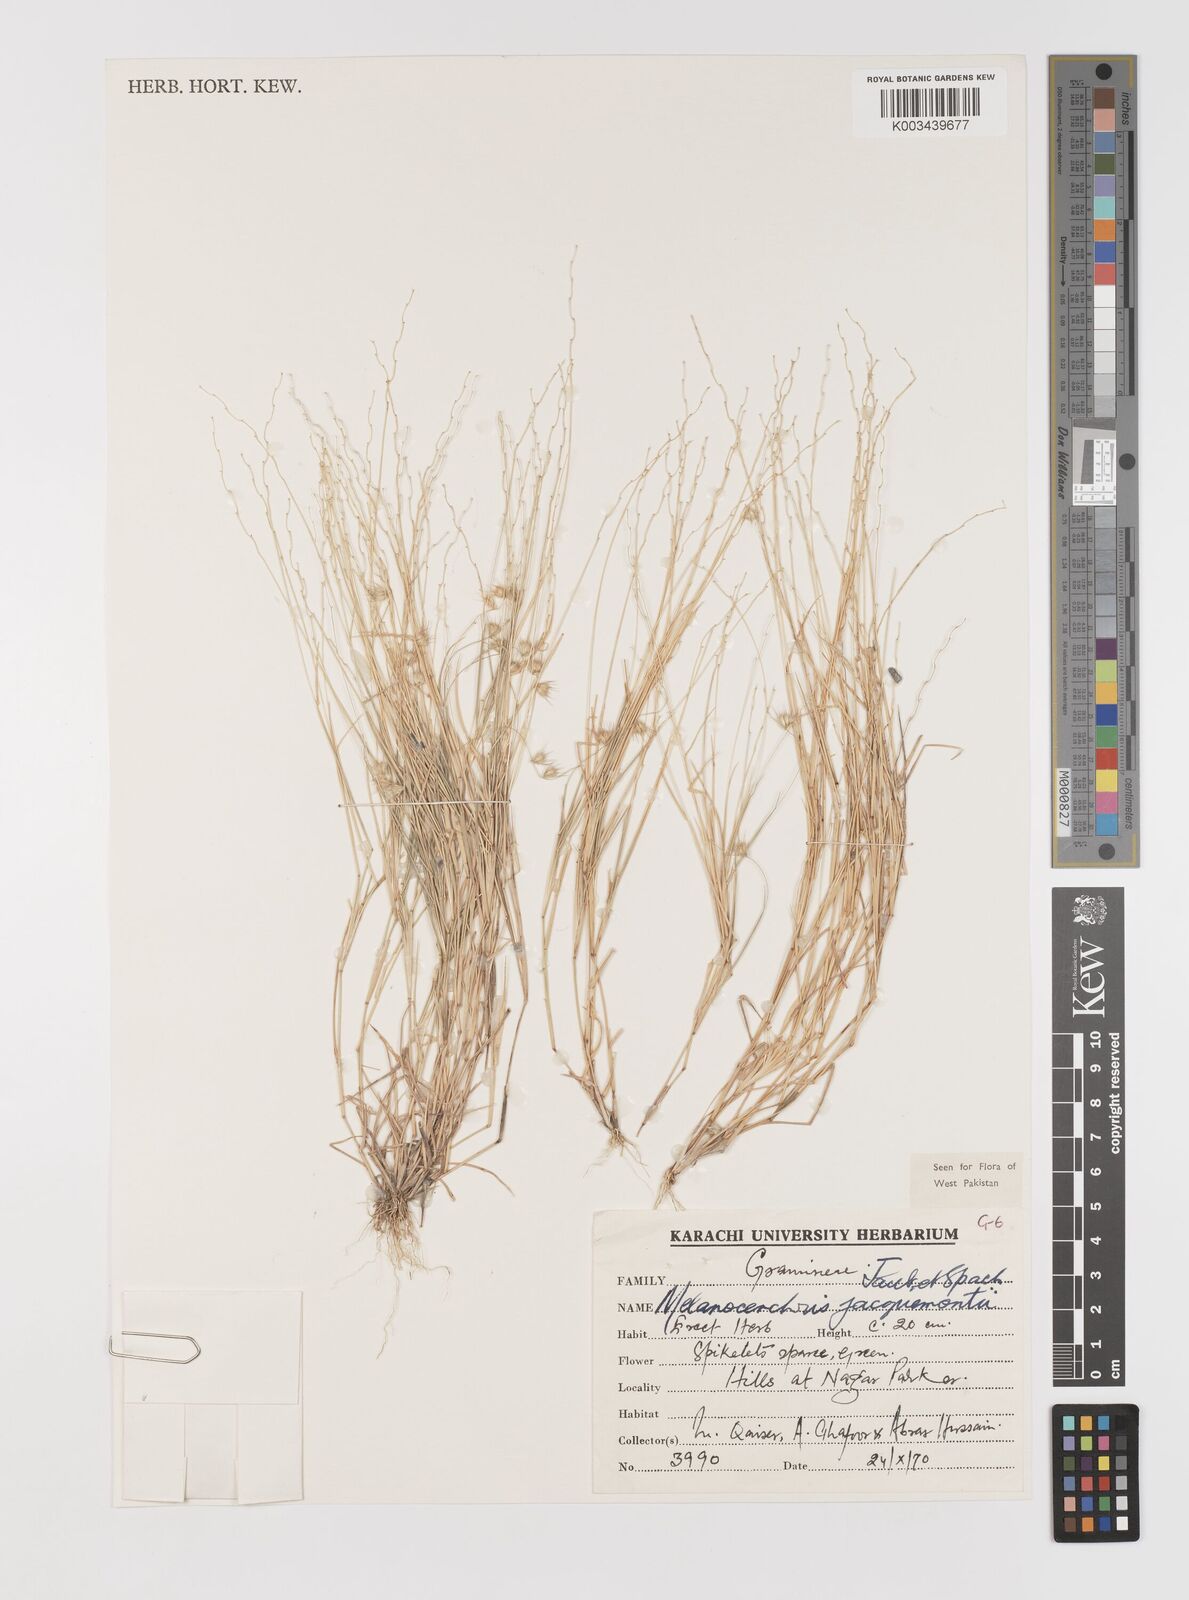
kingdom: Plantae
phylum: Tracheophyta
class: Liliopsida
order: Poales
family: Poaceae
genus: Melanocenchris
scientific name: Melanocenchris jacquemontii
